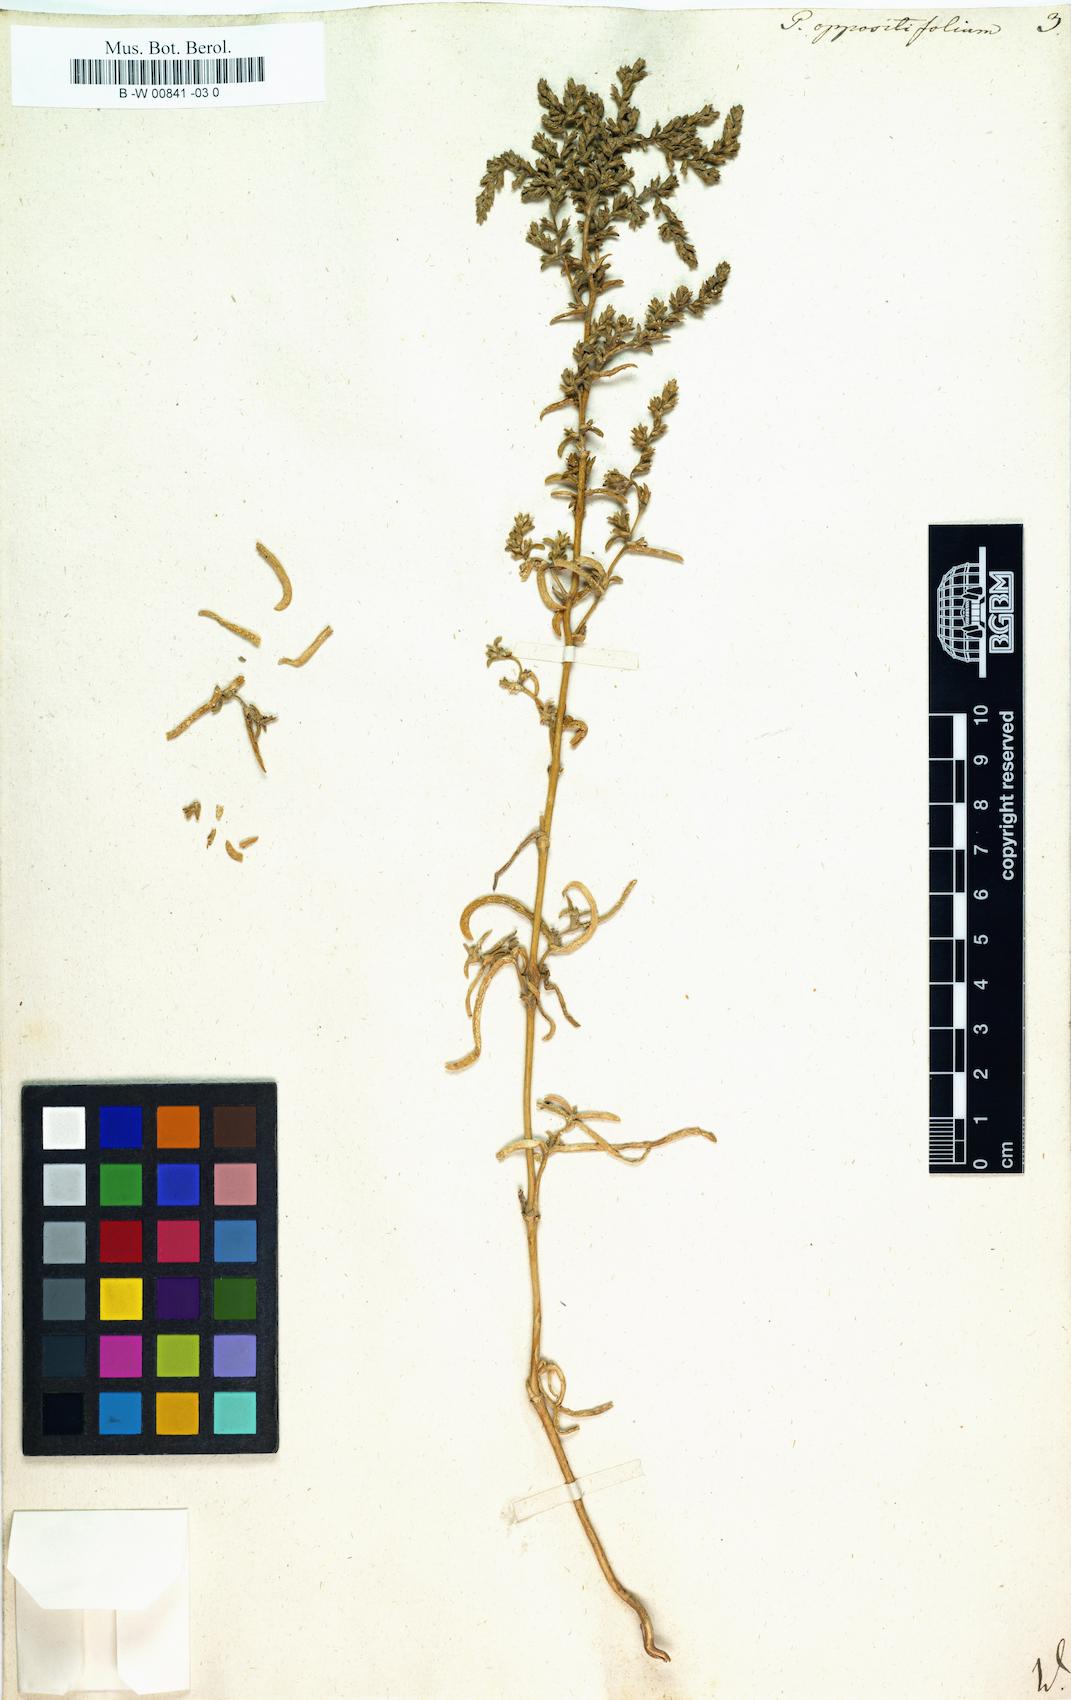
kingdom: Plantae
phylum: Tracheophyta
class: Magnoliopsida
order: Caryophyllales
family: Amaranthaceae
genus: Petrosimonia
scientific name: Petrosimonia oppositifolia
